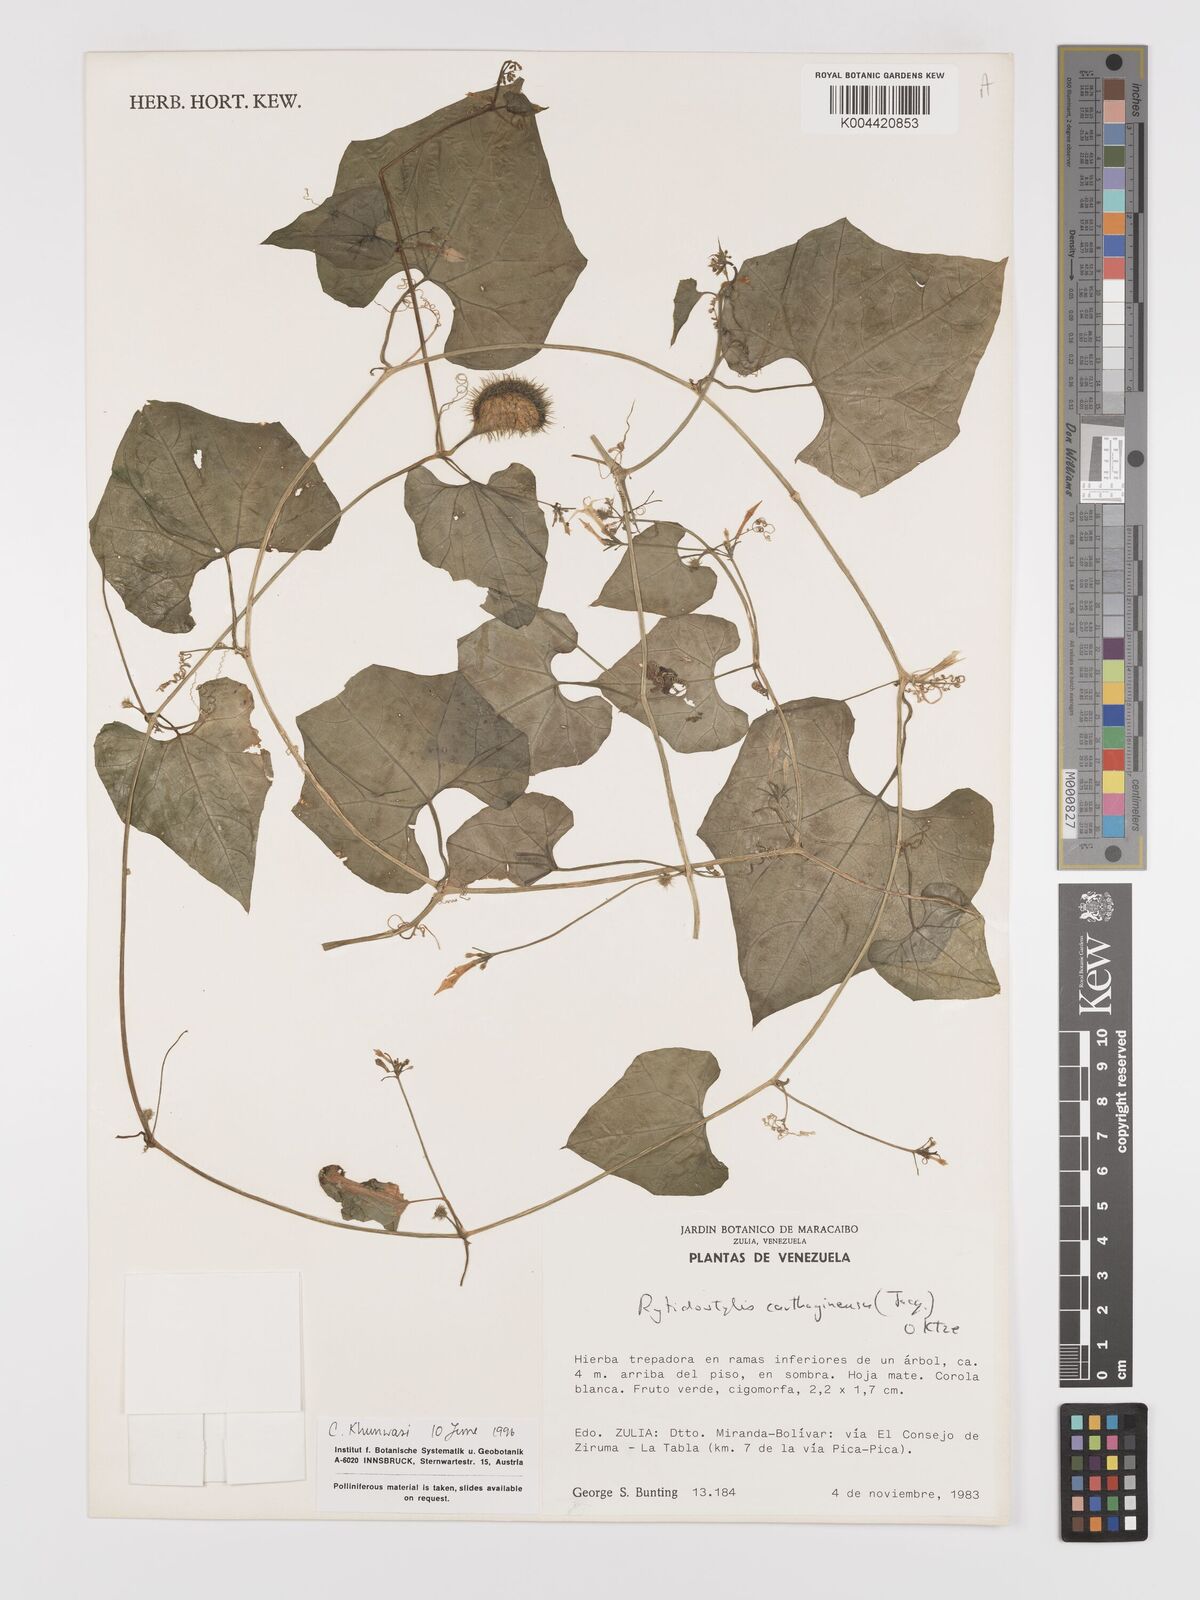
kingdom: Plantae
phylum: Tracheophyta
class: Magnoliopsida
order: Cucurbitales
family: Cucurbitaceae
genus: Cyclanthera
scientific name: Cyclanthera carthagenensis
